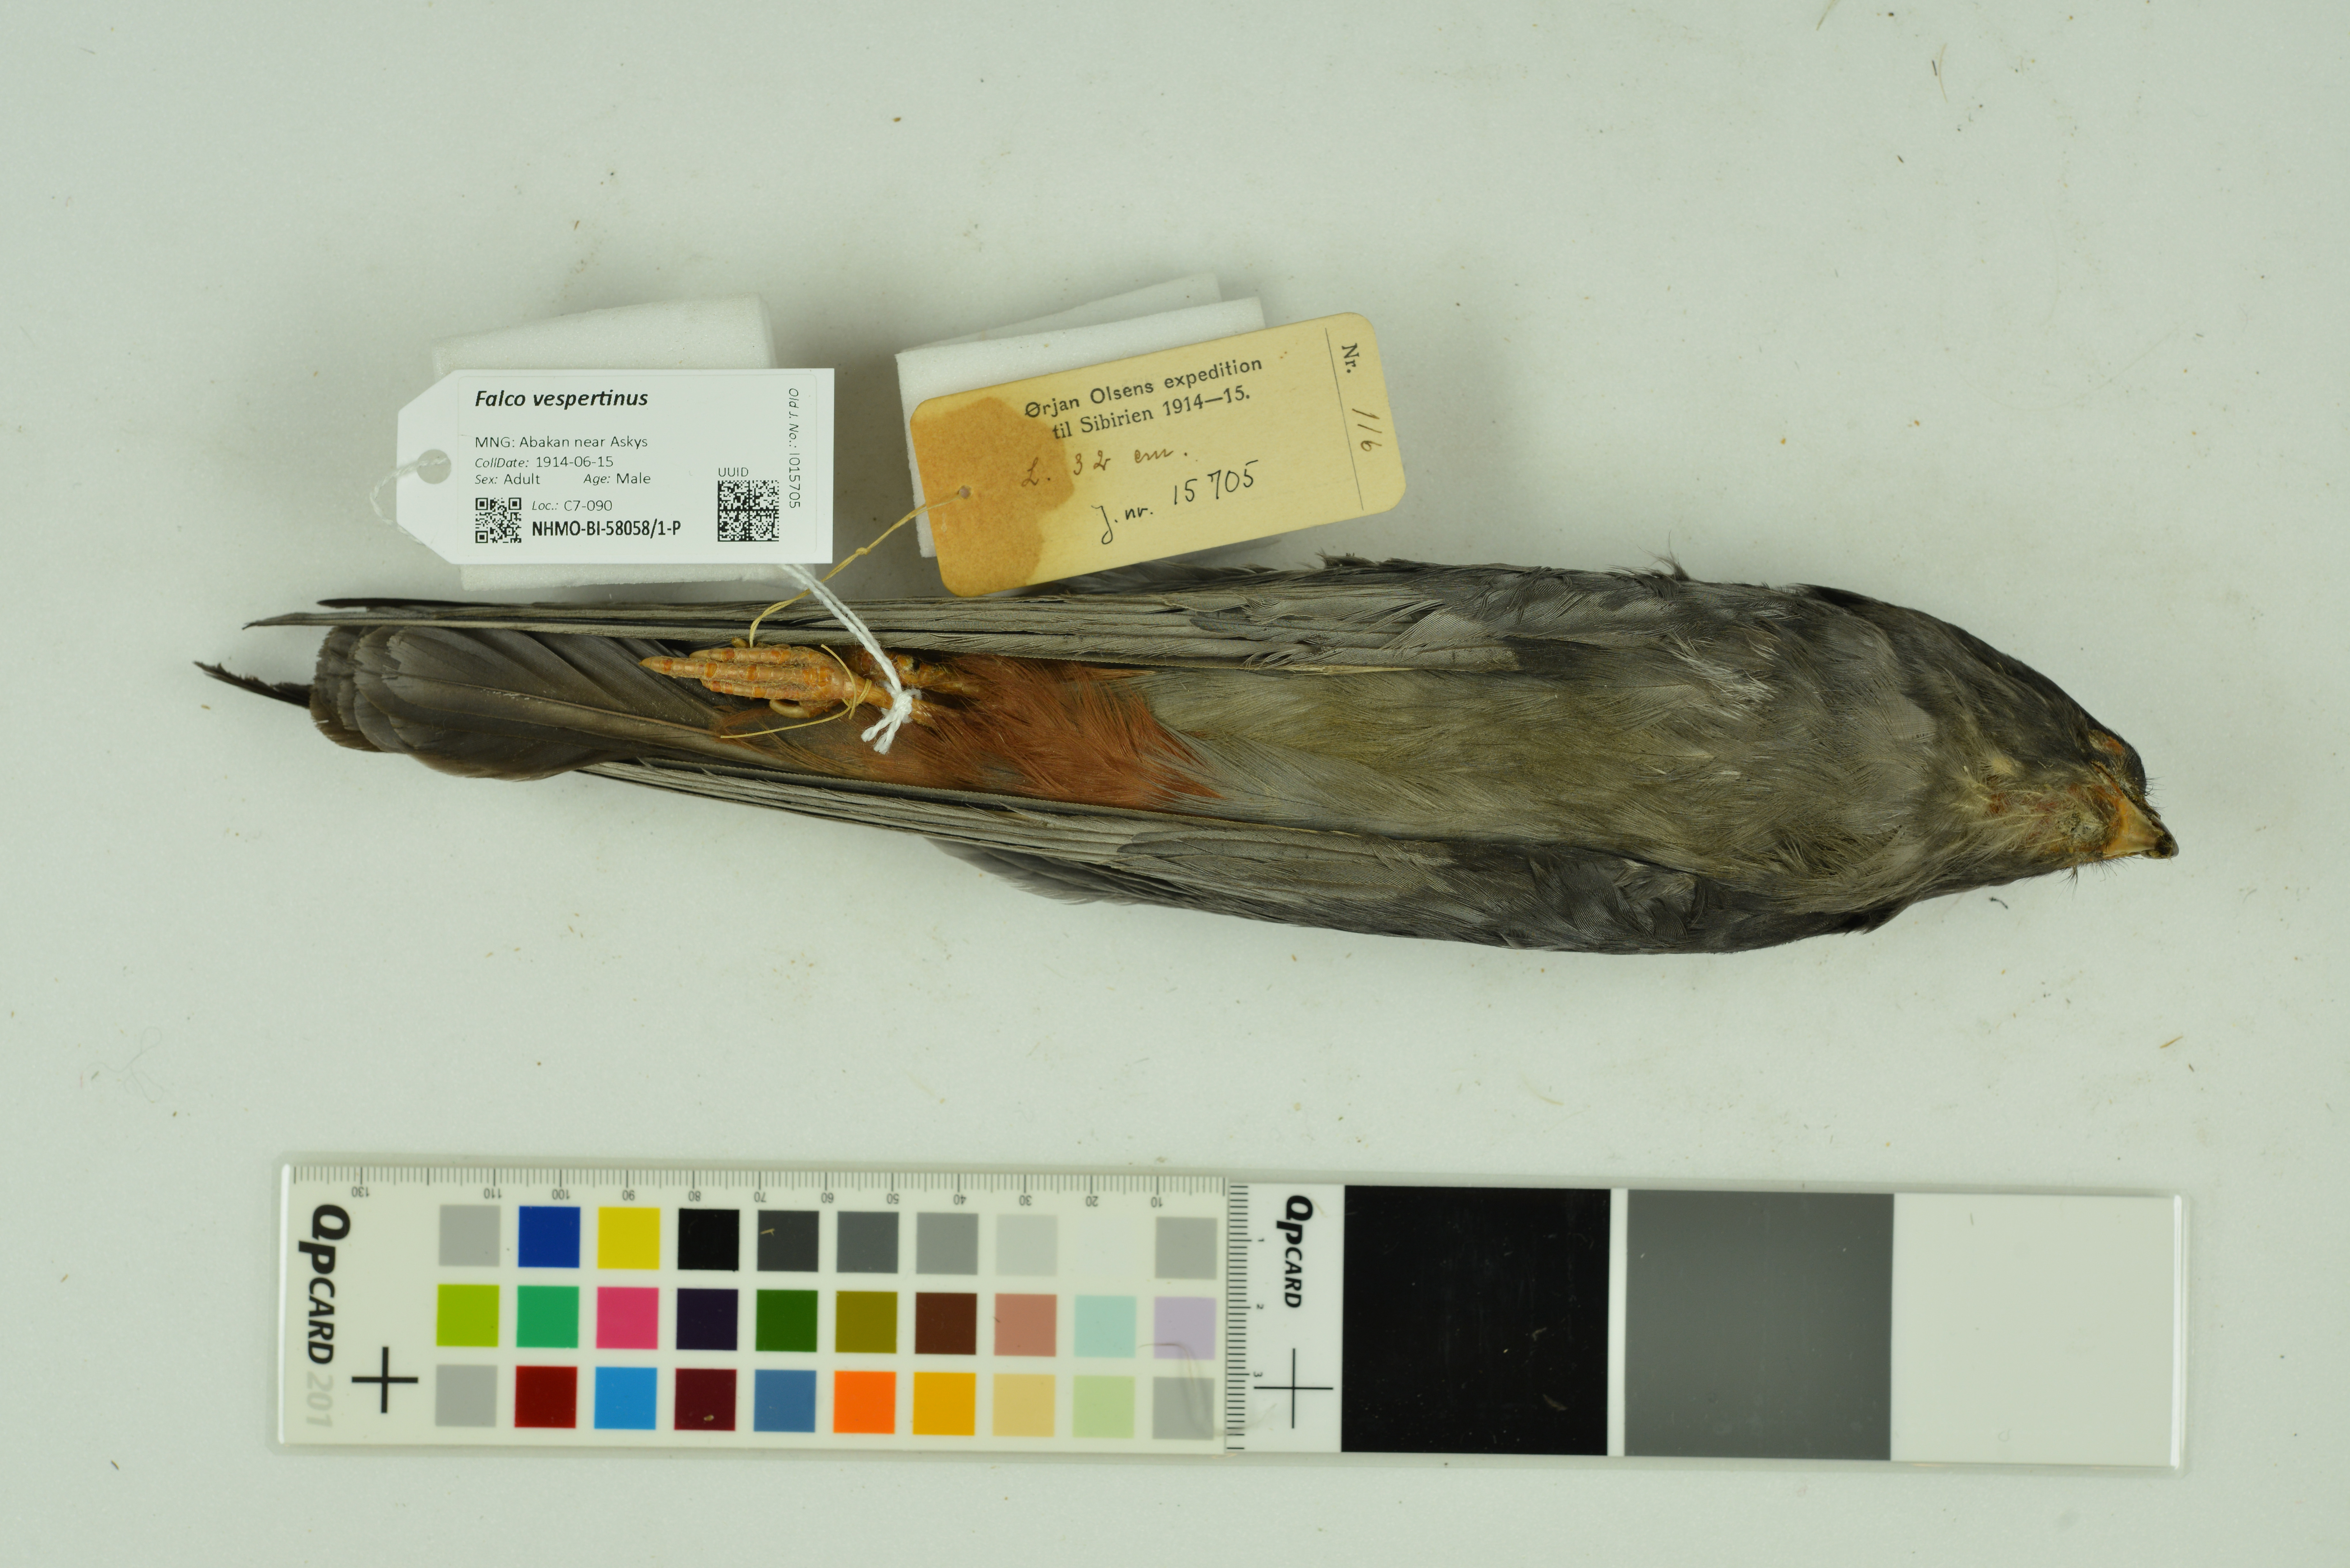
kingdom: Animalia
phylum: Chordata
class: Aves
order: Falconiformes
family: Falconidae
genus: Falco
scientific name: Falco vespertinus
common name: Red-footed falcon
